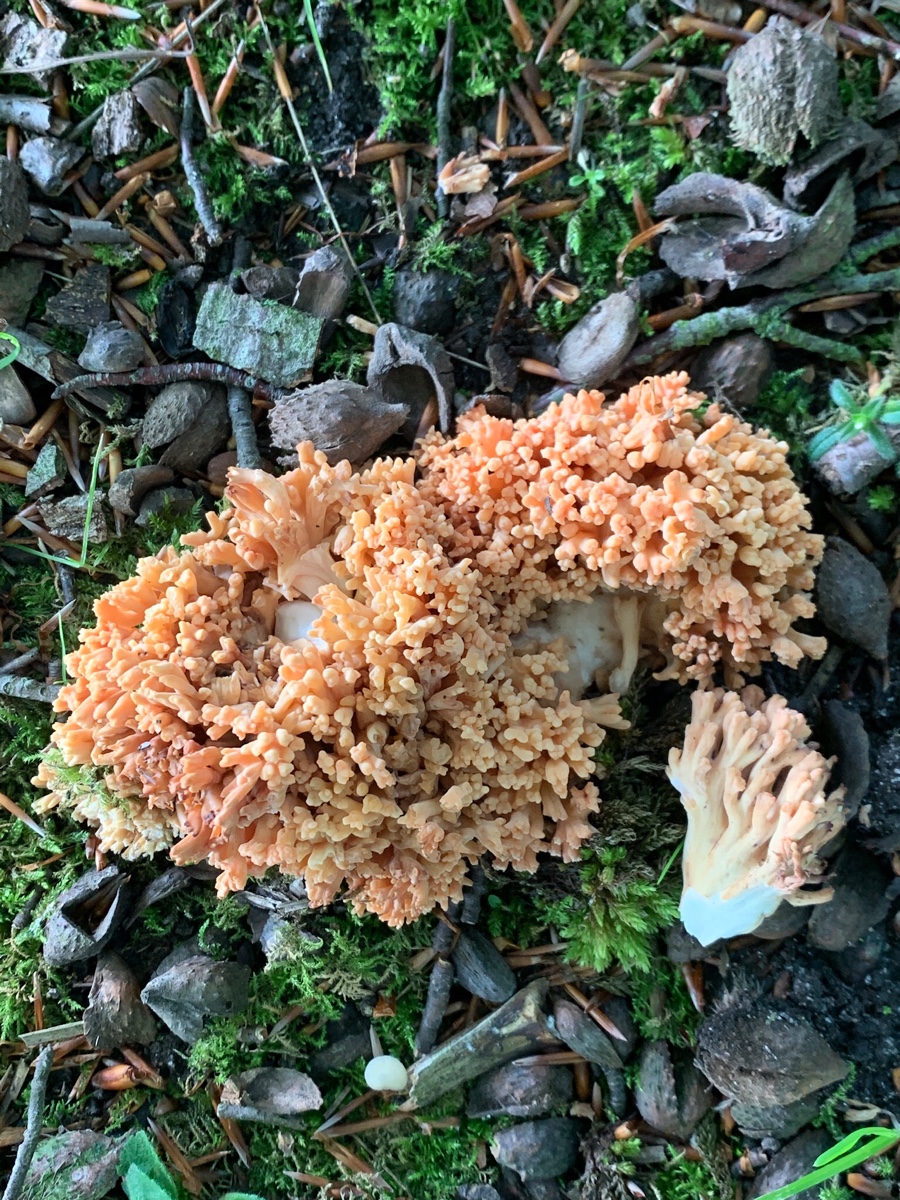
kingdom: Fungi
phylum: Basidiomycota
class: Agaricomycetes
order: Gomphales
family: Gomphaceae
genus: Ramaria
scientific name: Ramaria fagetorum
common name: abrikos-koralsvamp
